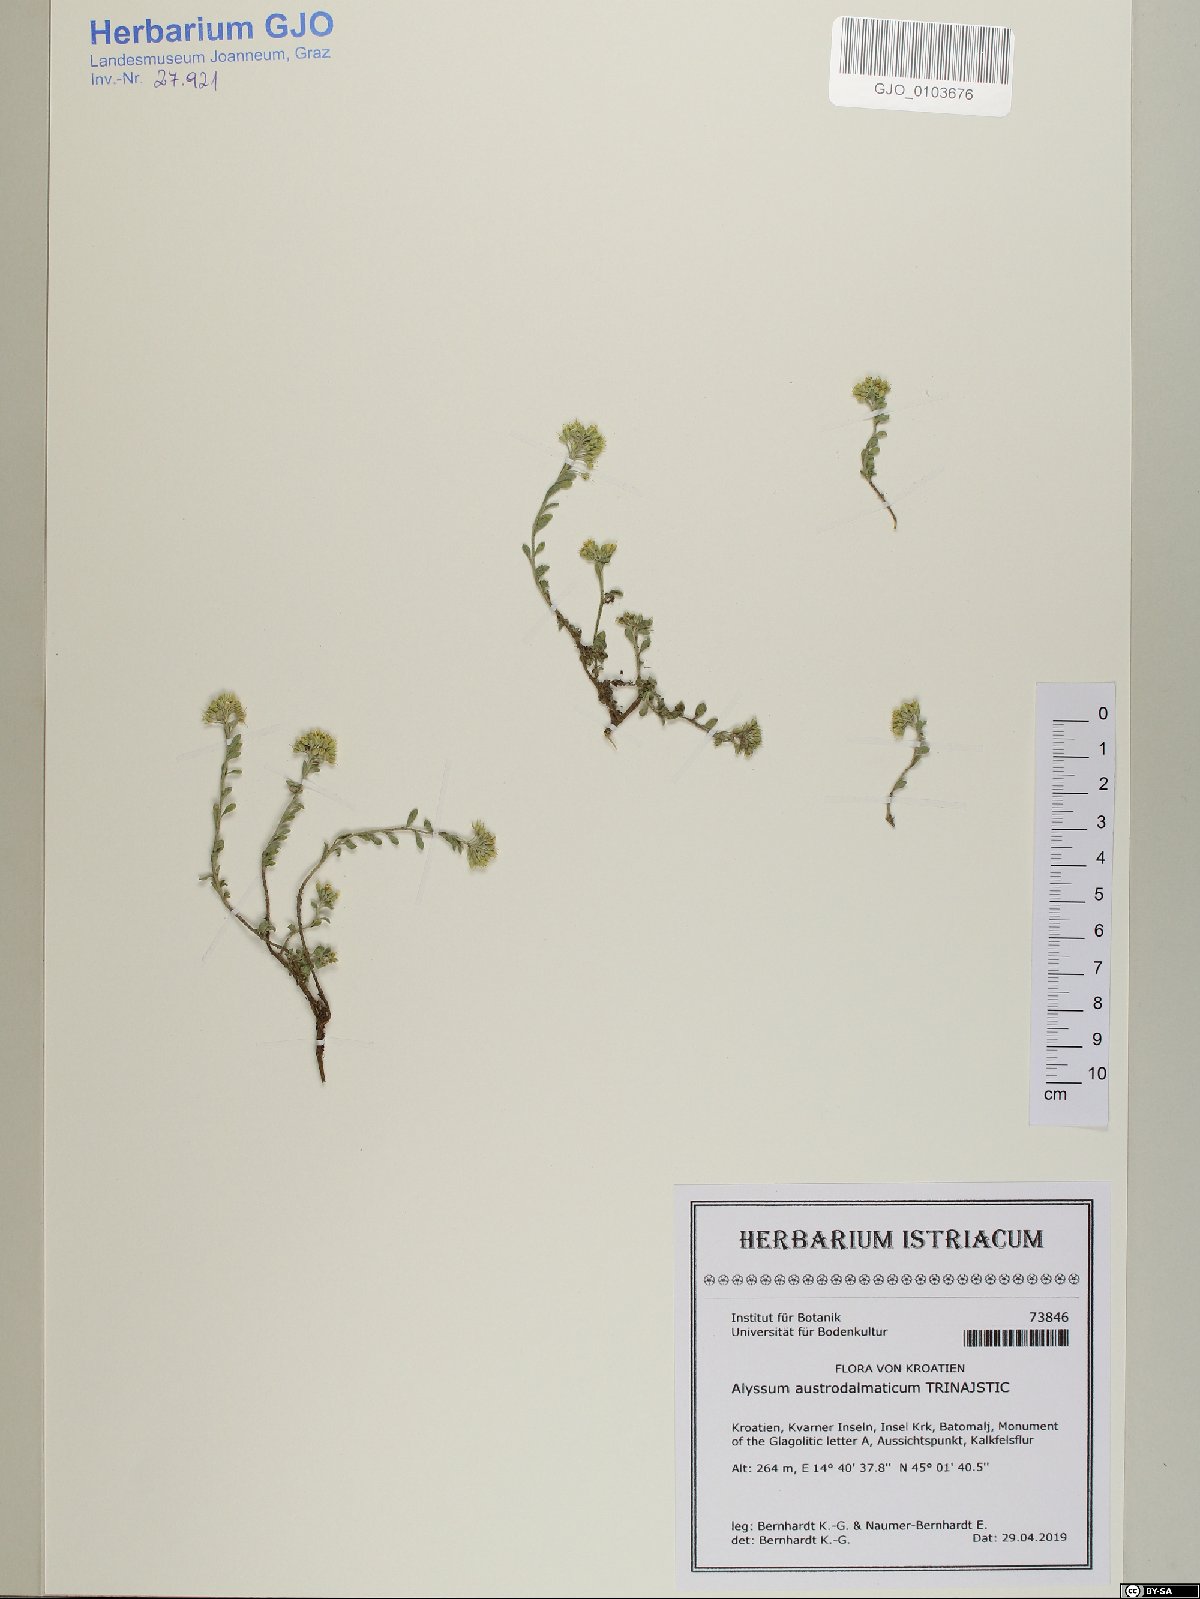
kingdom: Plantae
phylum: Tracheophyta
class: Magnoliopsida
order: Brassicales
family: Brassicaceae
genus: Alyssum
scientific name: Alyssum austrodalmaticum
